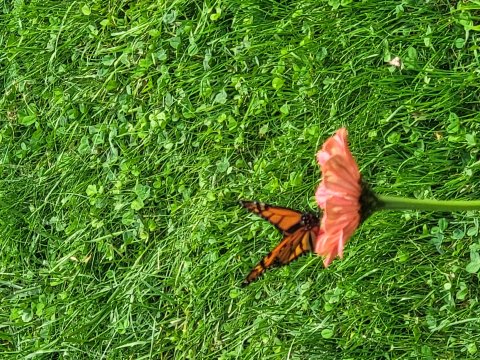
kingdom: Animalia
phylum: Arthropoda
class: Insecta
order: Lepidoptera
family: Nymphalidae
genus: Danaus
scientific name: Danaus plexippus
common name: Monarch
